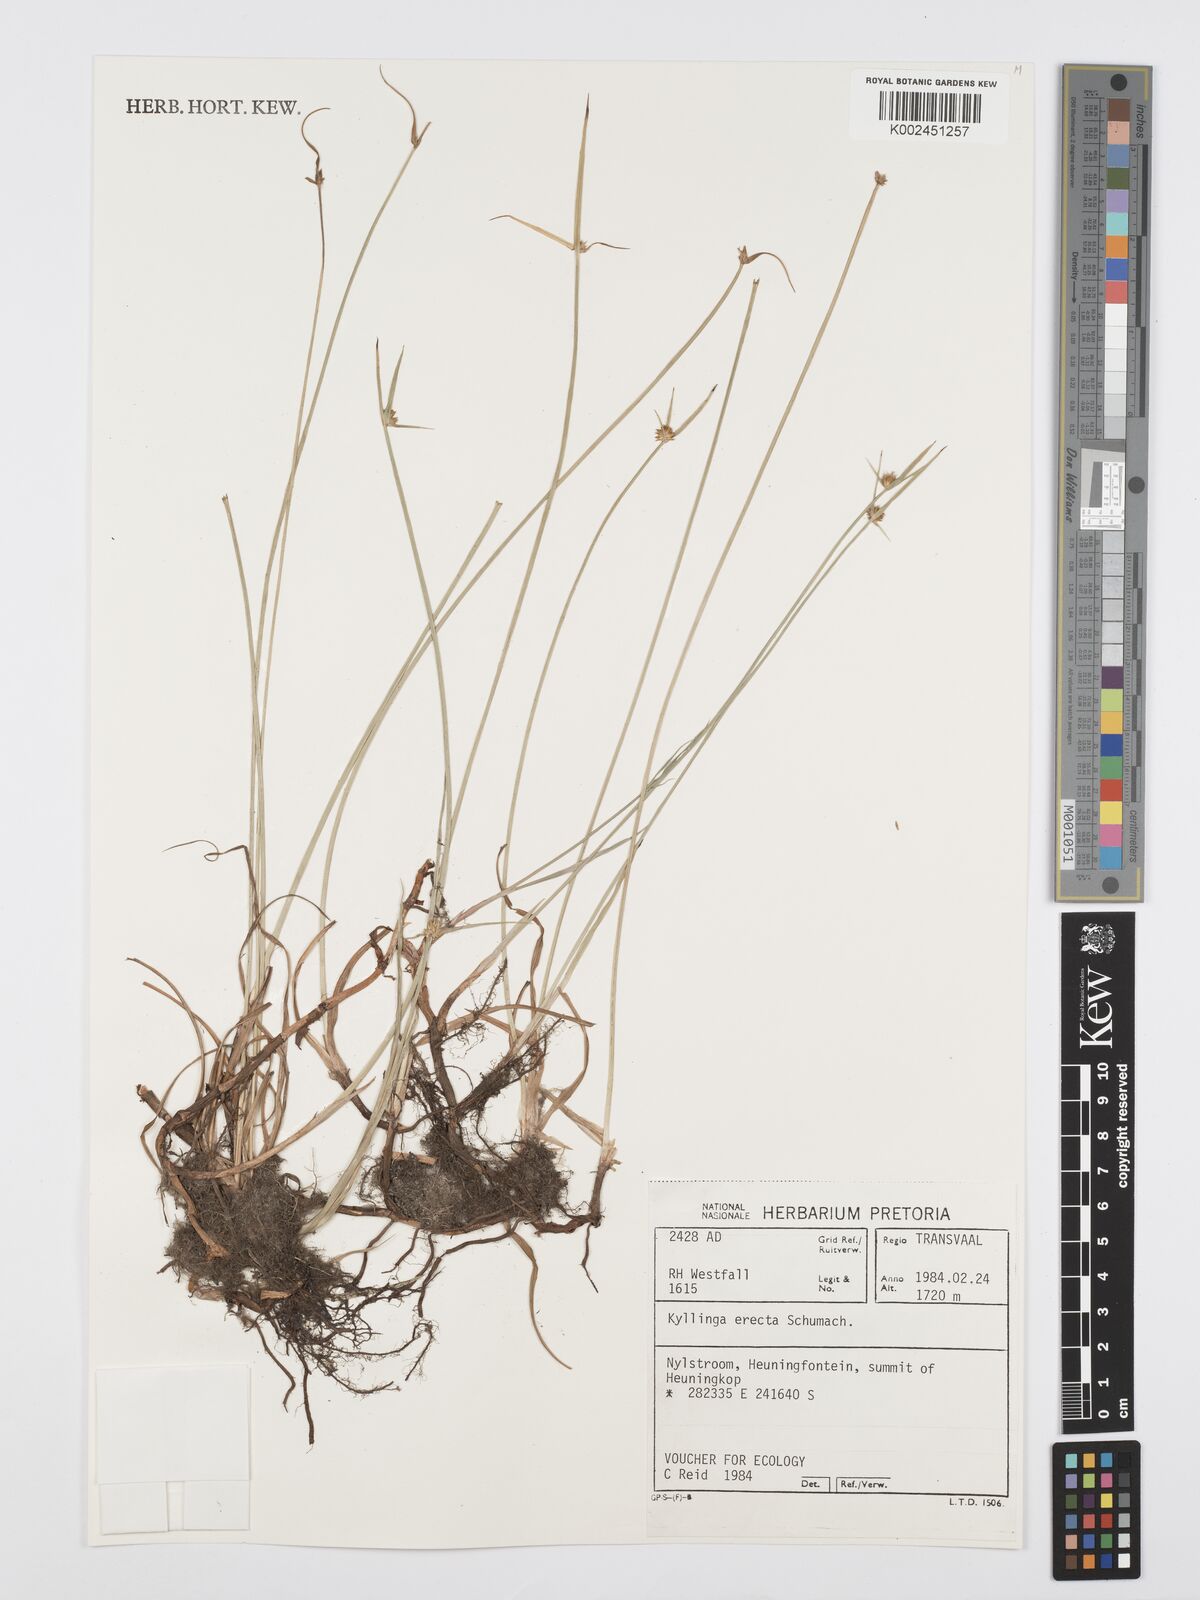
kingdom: Plantae
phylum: Tracheophyta
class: Liliopsida
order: Poales
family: Cyperaceae
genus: Cyperus
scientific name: Cyperus erectus
